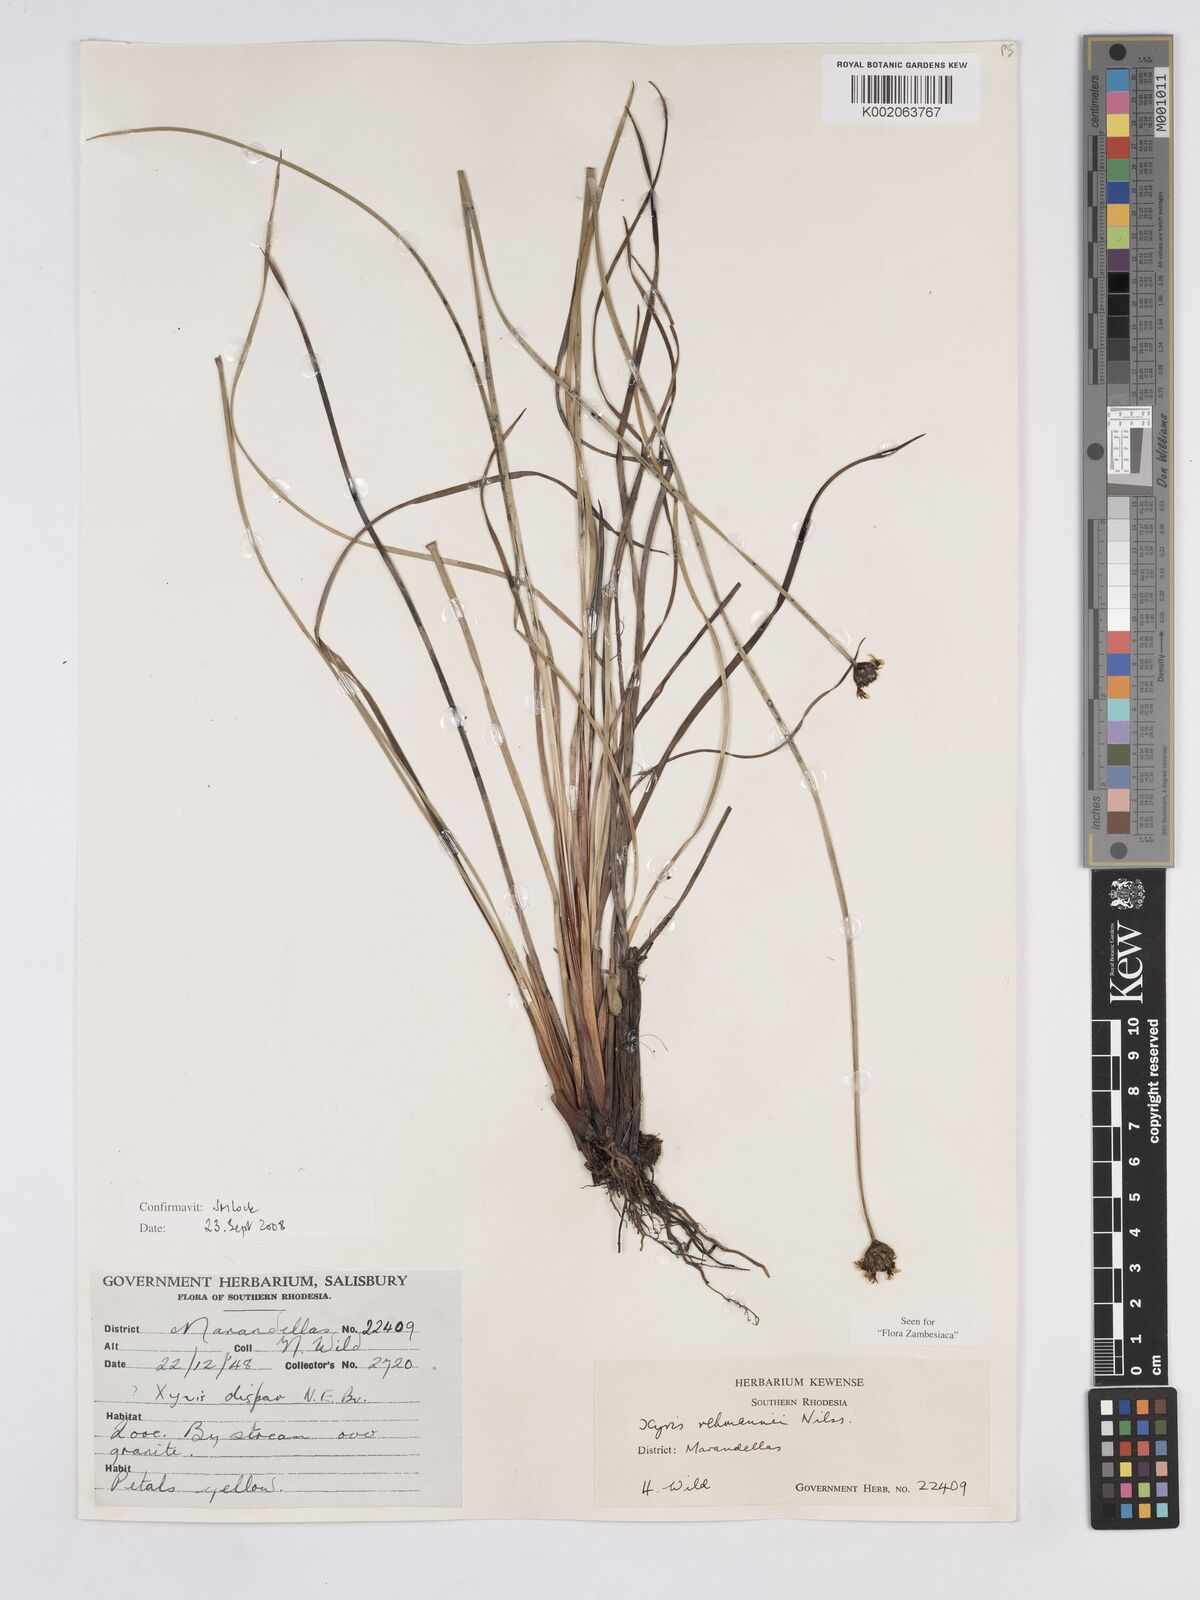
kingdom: Plantae
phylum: Tracheophyta
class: Liliopsida
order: Poales
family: Xyridaceae
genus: Xyris
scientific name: Xyris rehmannii
